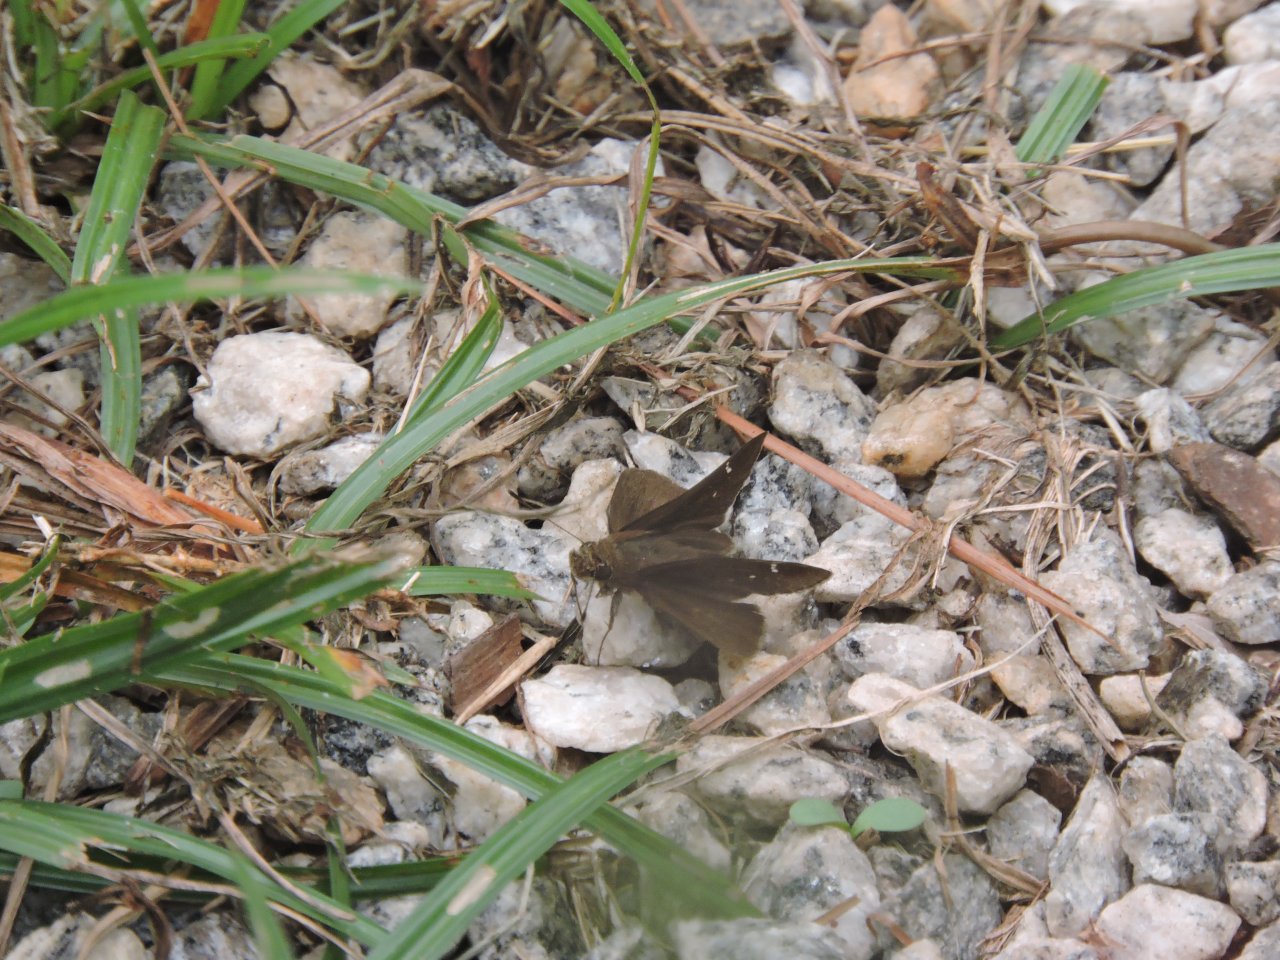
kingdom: Animalia
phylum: Arthropoda
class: Insecta
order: Lepidoptera
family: Hesperiidae
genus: Lerema
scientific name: Lerema accius
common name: Clouded Skipper
